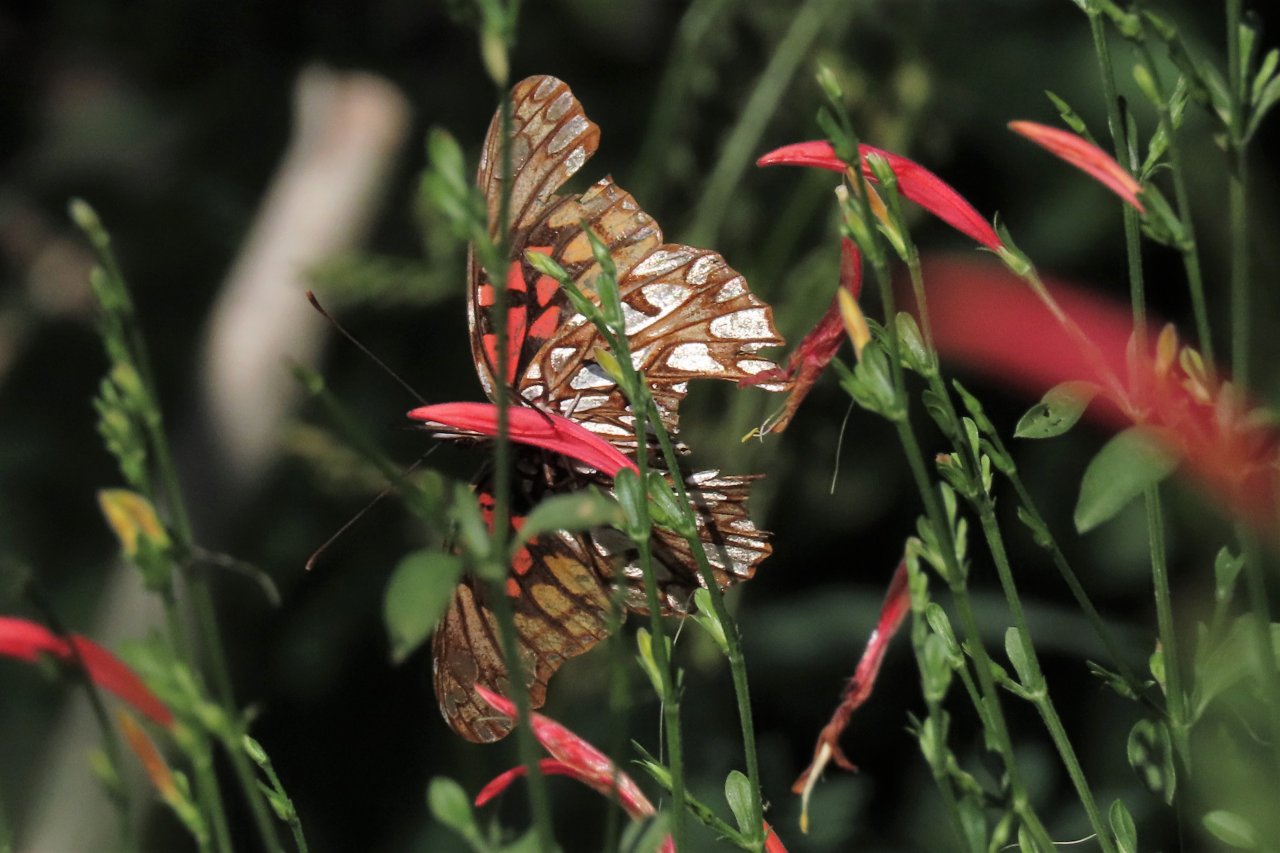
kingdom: Animalia
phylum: Arthropoda
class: Insecta
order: Lepidoptera
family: Nymphalidae
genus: Dione
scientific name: Dione moneta
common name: Mexican Silverspot
